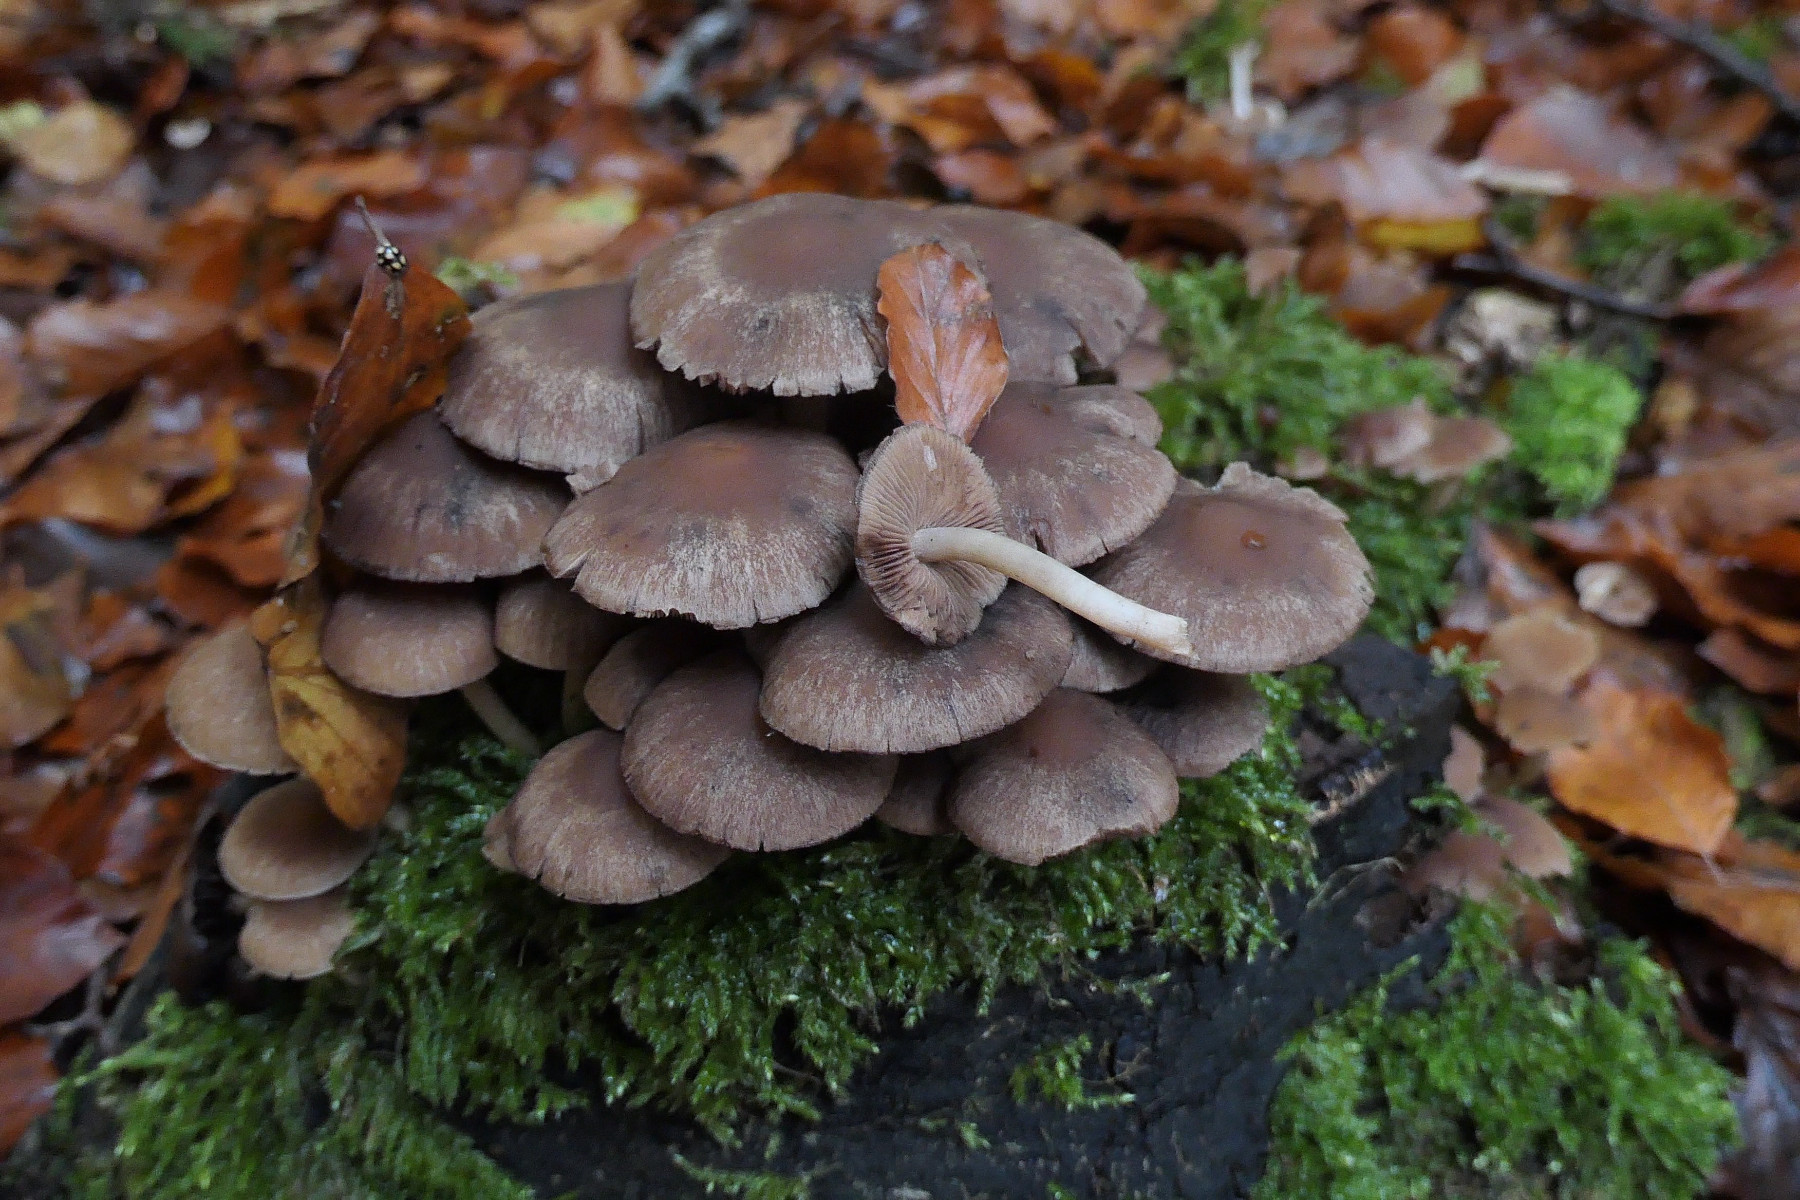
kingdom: Fungi
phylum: Basidiomycota
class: Agaricomycetes
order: Agaricales
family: Psathyrellaceae
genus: Psathyrella
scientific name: Psathyrella piluliformis
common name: lysstokket mørkhat
